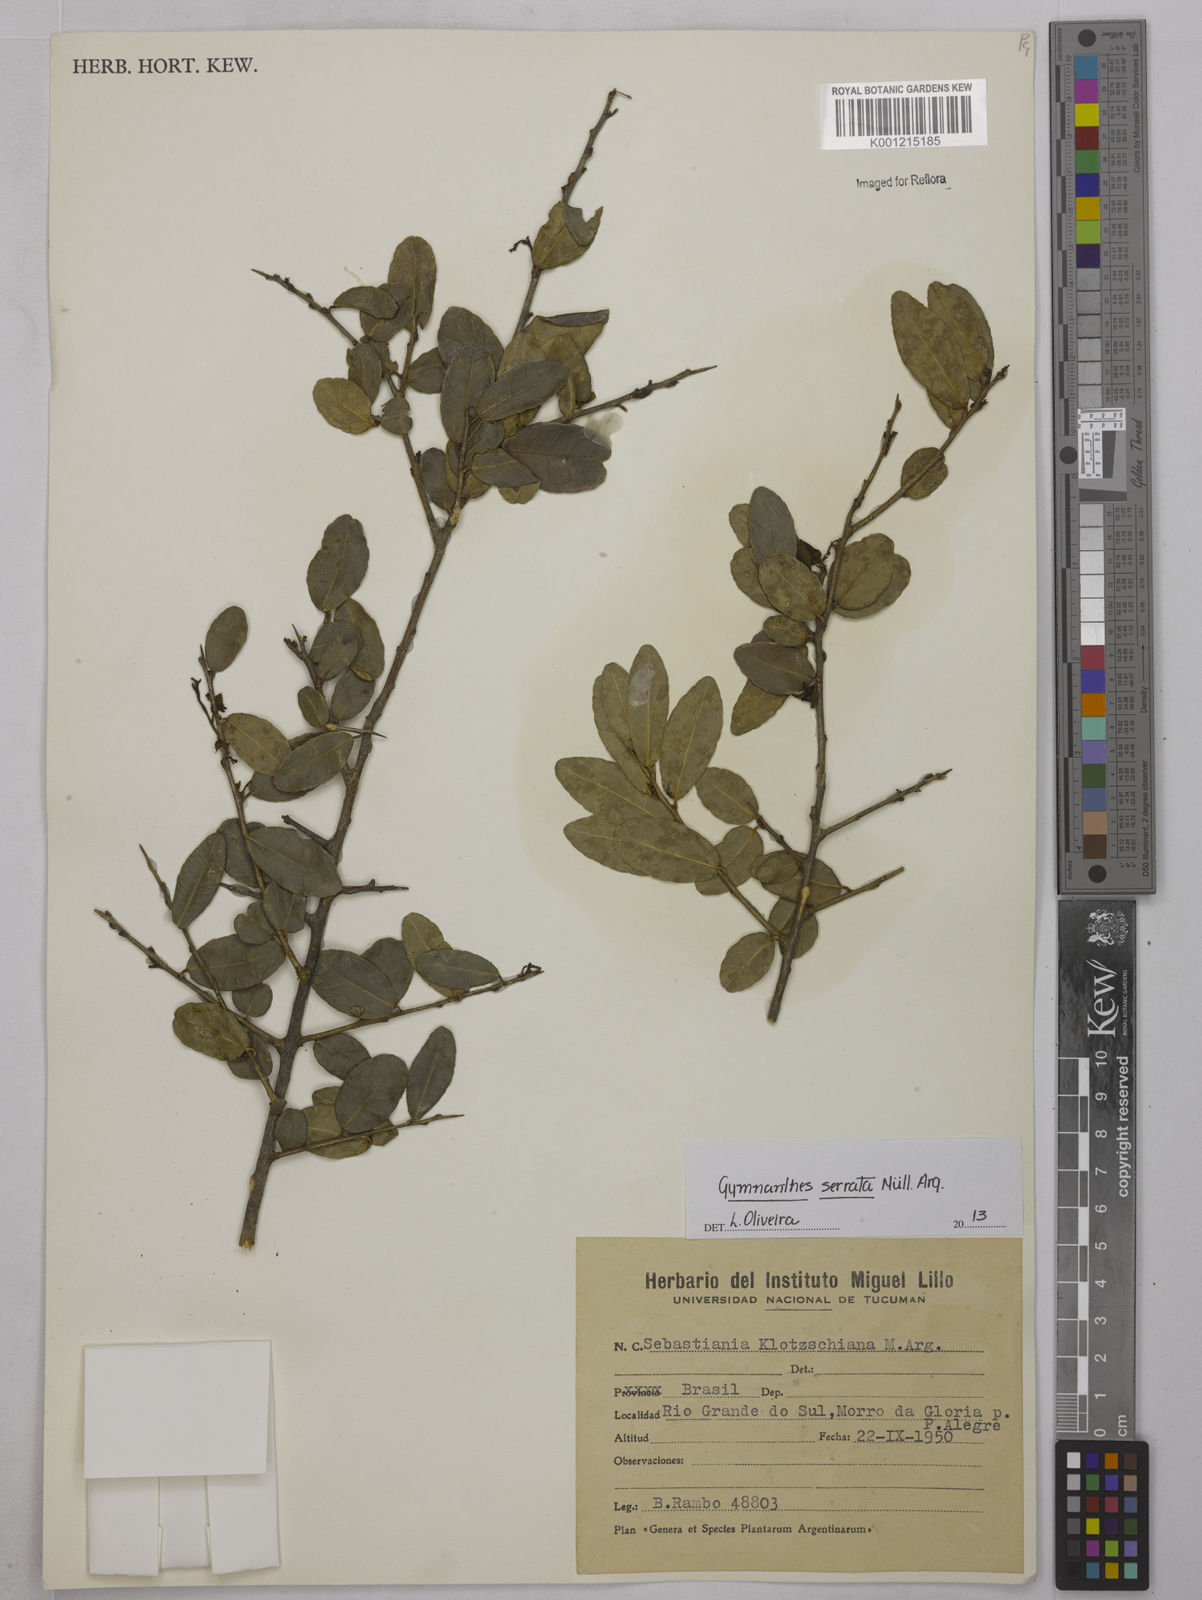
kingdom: Plantae
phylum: Tracheophyta
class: Magnoliopsida
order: Malpighiales
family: Euphorbiaceae
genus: Gymnanthes
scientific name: Gymnanthes
